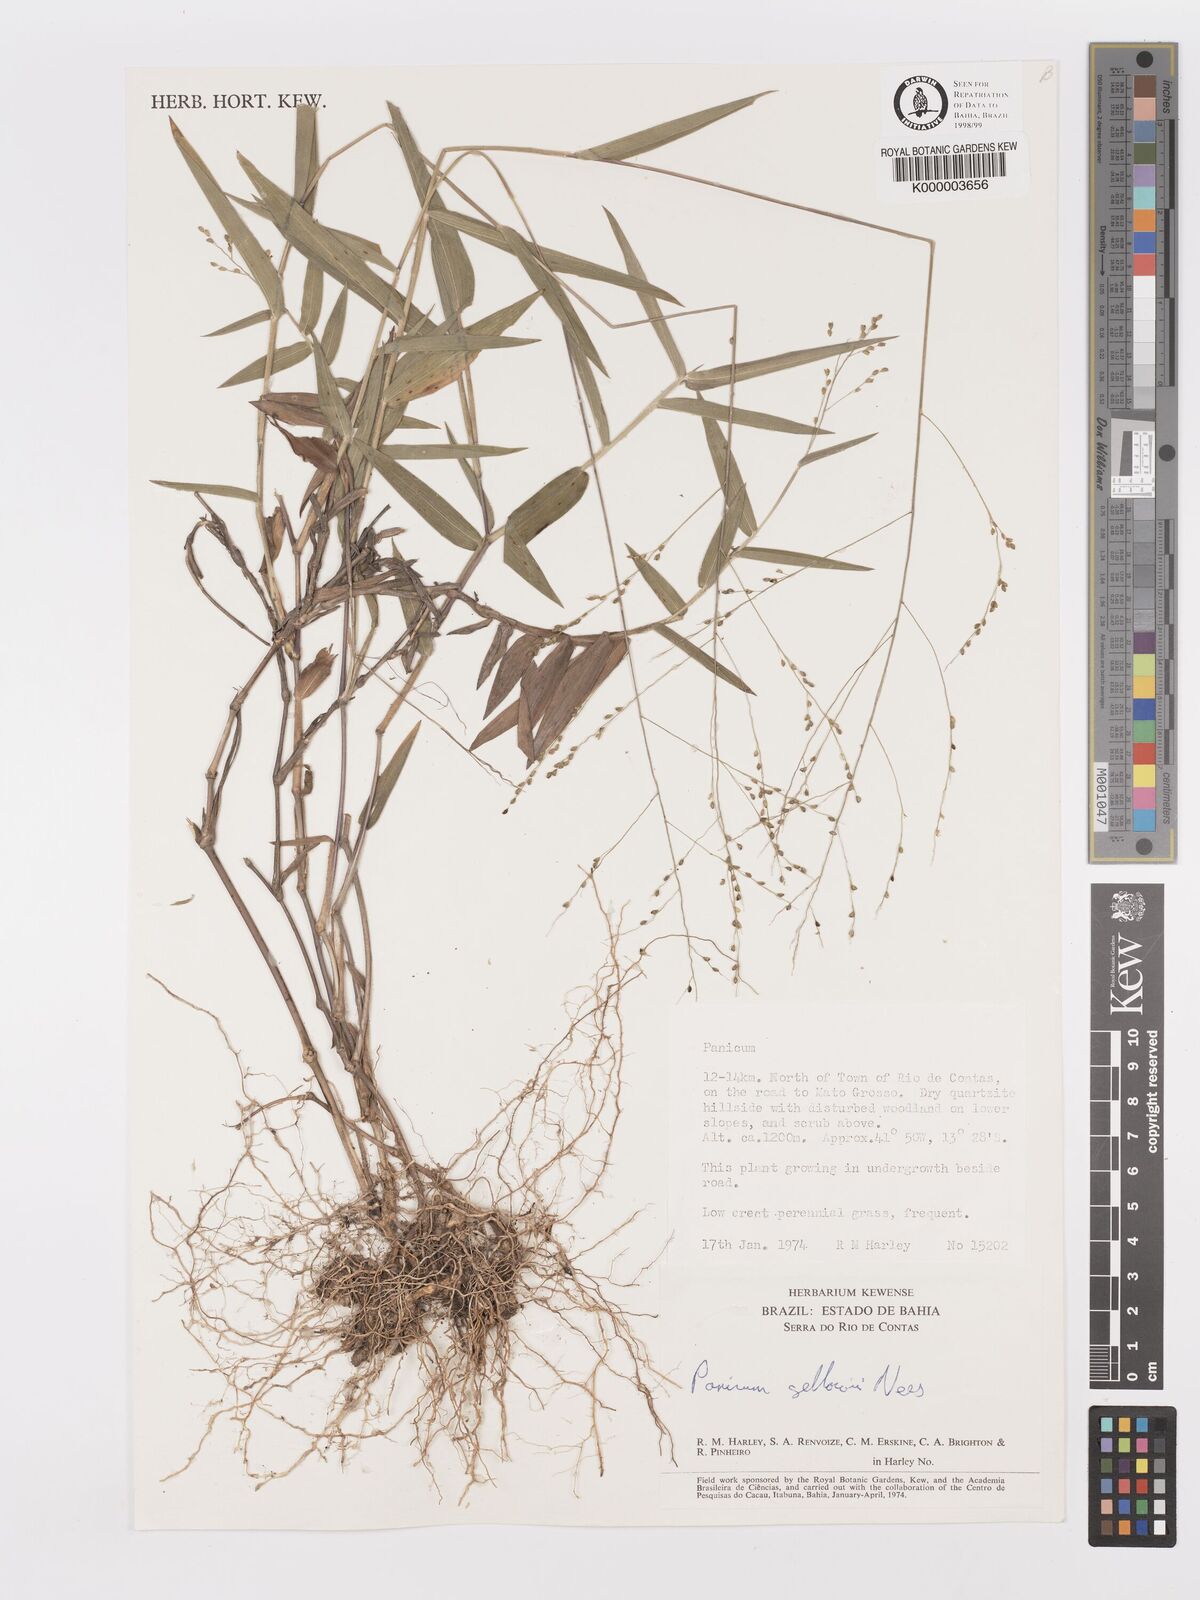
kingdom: Plantae
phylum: Tracheophyta
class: Liliopsida
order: Poales
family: Poaceae
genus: Panicum
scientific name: Panicum sellowii
